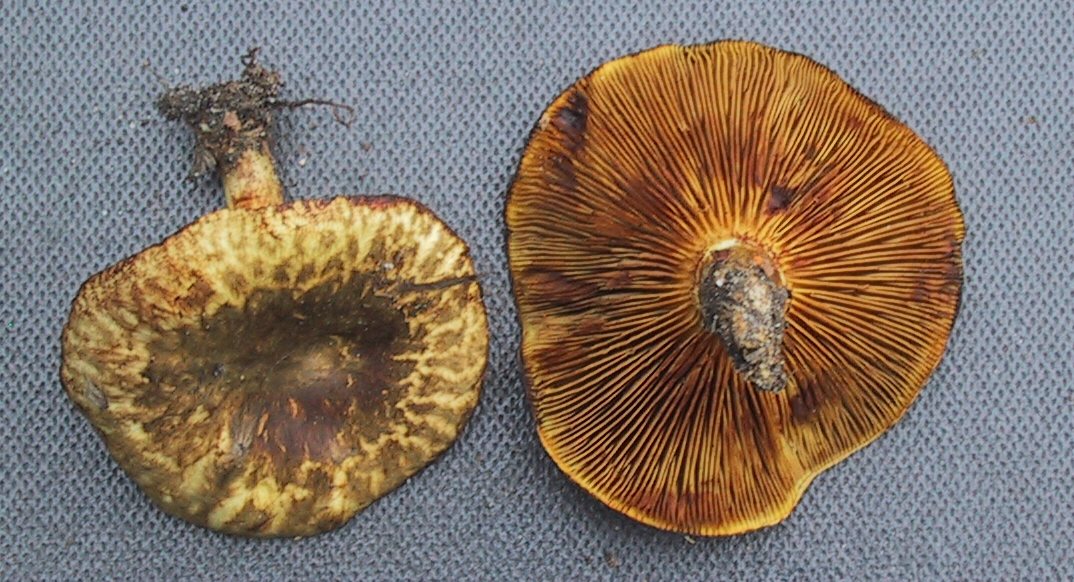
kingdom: Fungi
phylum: Basidiomycota
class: Agaricomycetes
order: Boletales
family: Paxillaceae
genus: Paxillus
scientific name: Paxillus rubicundulus
